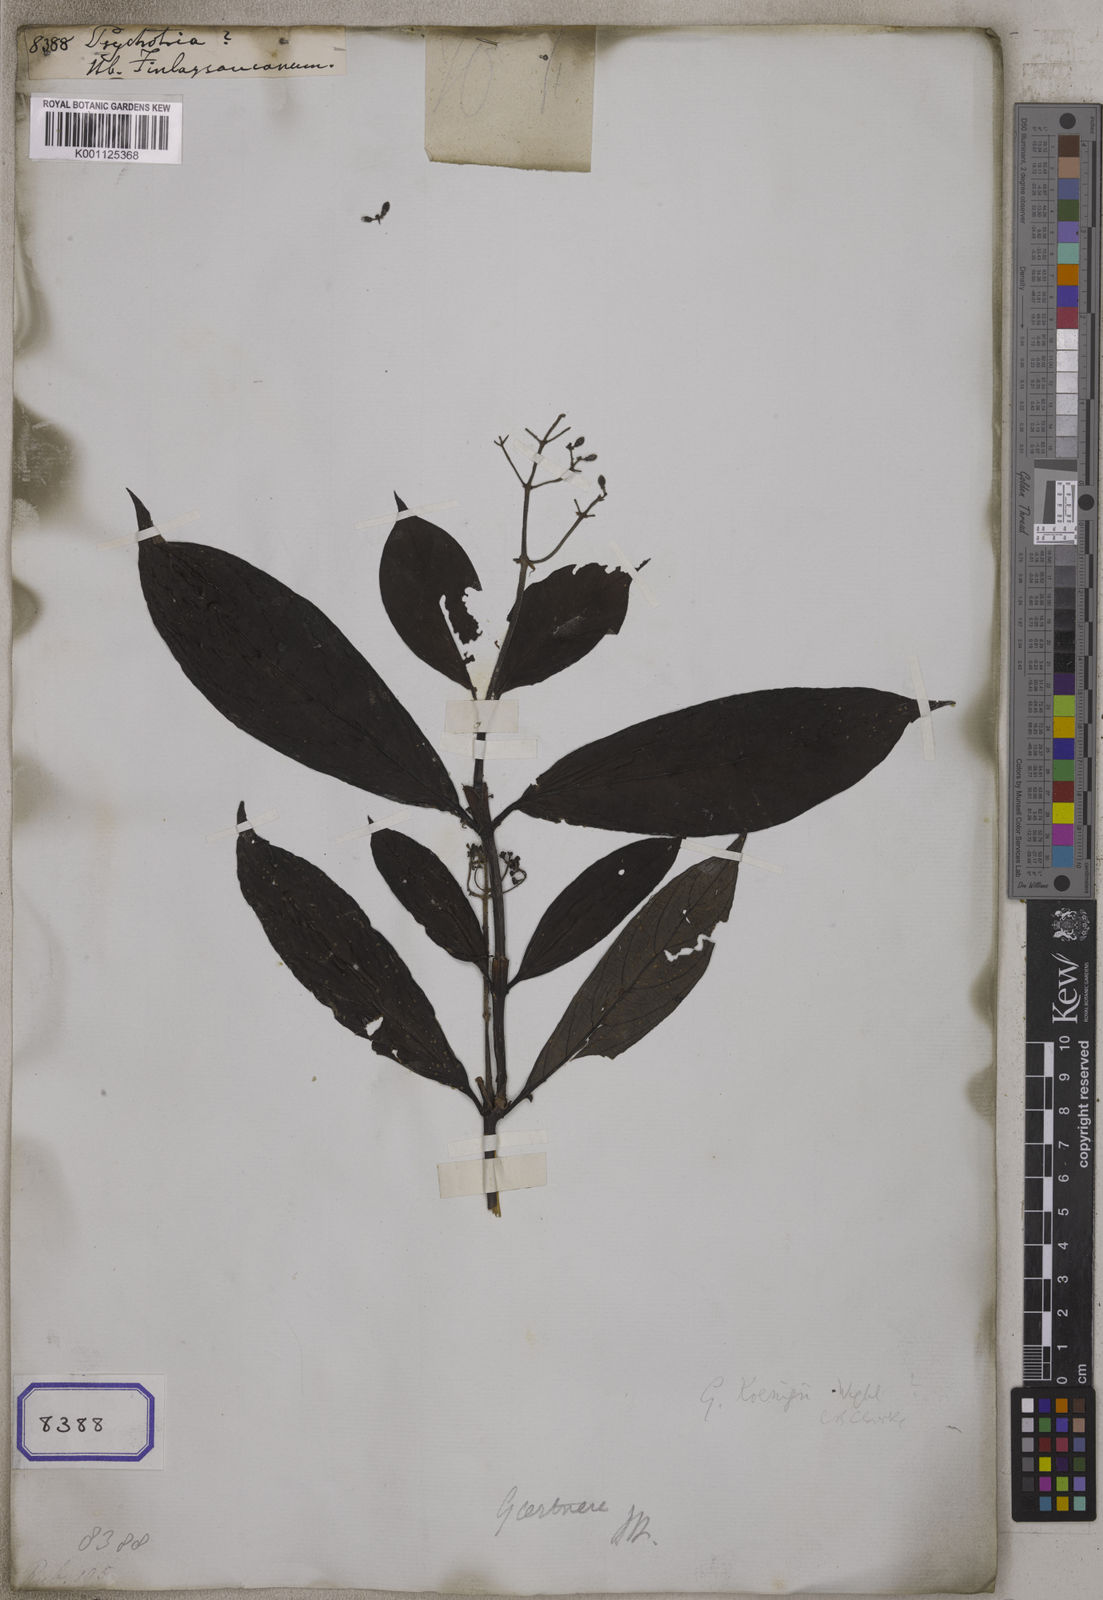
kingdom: Plantae
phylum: Tracheophyta
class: Magnoliopsida
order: Gentianales
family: Rubiaceae
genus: Psychotria
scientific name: Psychotria
